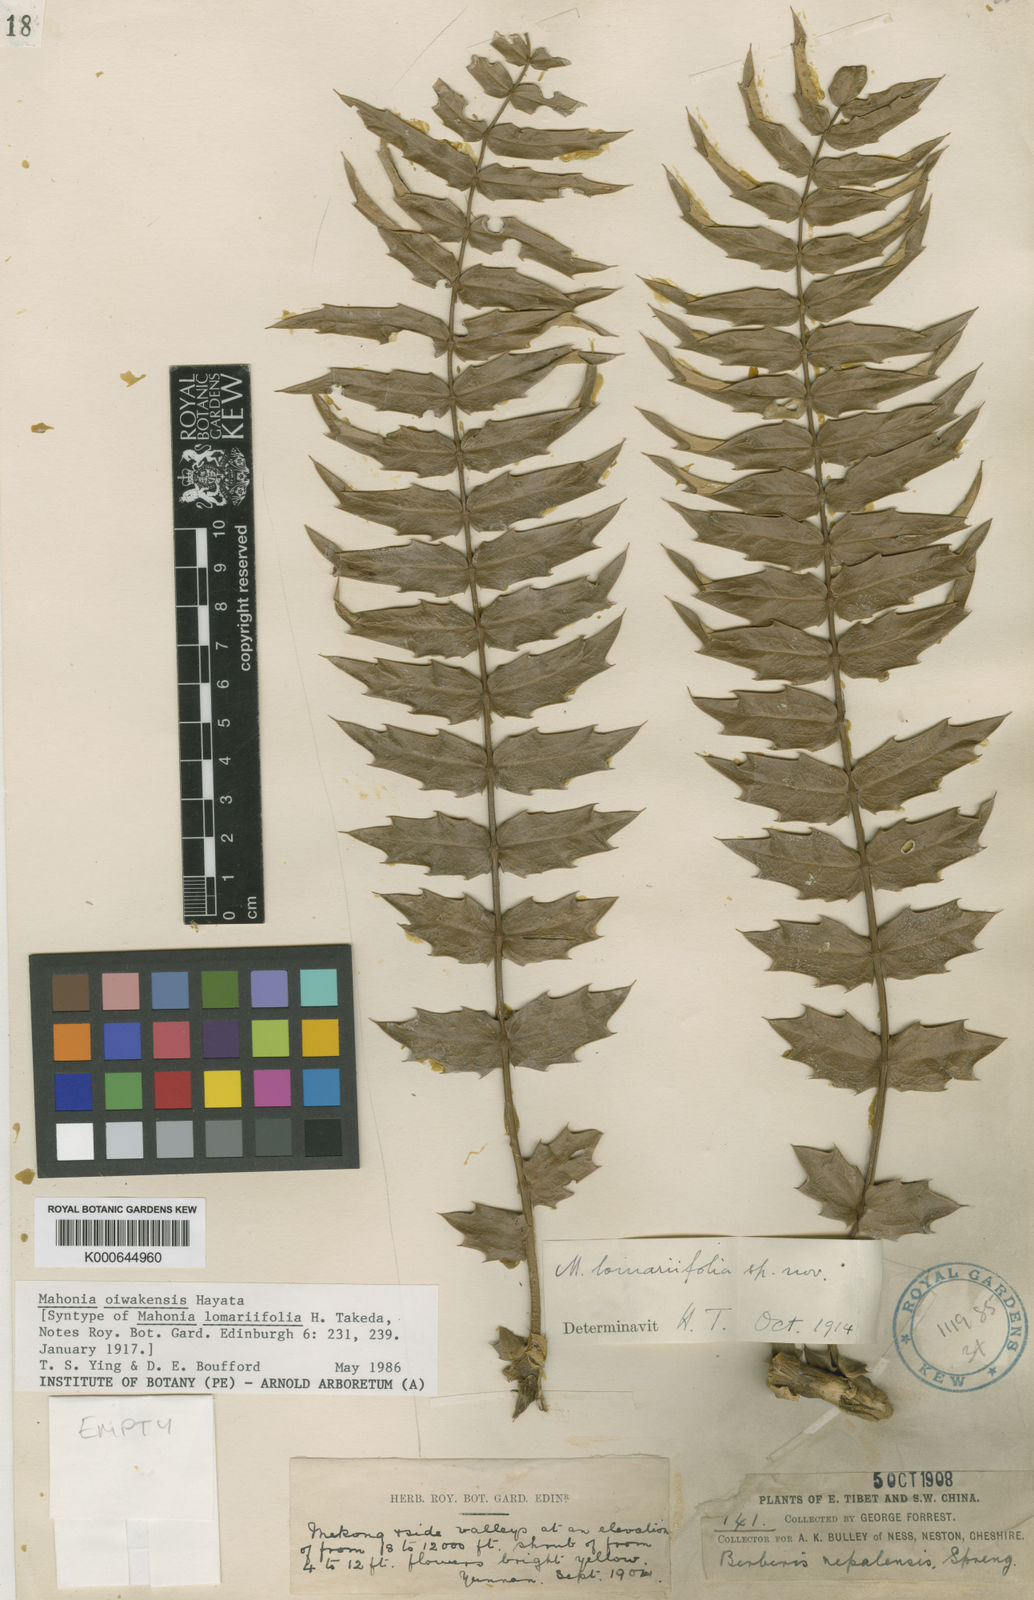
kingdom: Plantae
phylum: Tracheophyta
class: Magnoliopsida
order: Ranunculales
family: Berberidaceae
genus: Mahonia
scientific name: Mahonia oiwakensis
